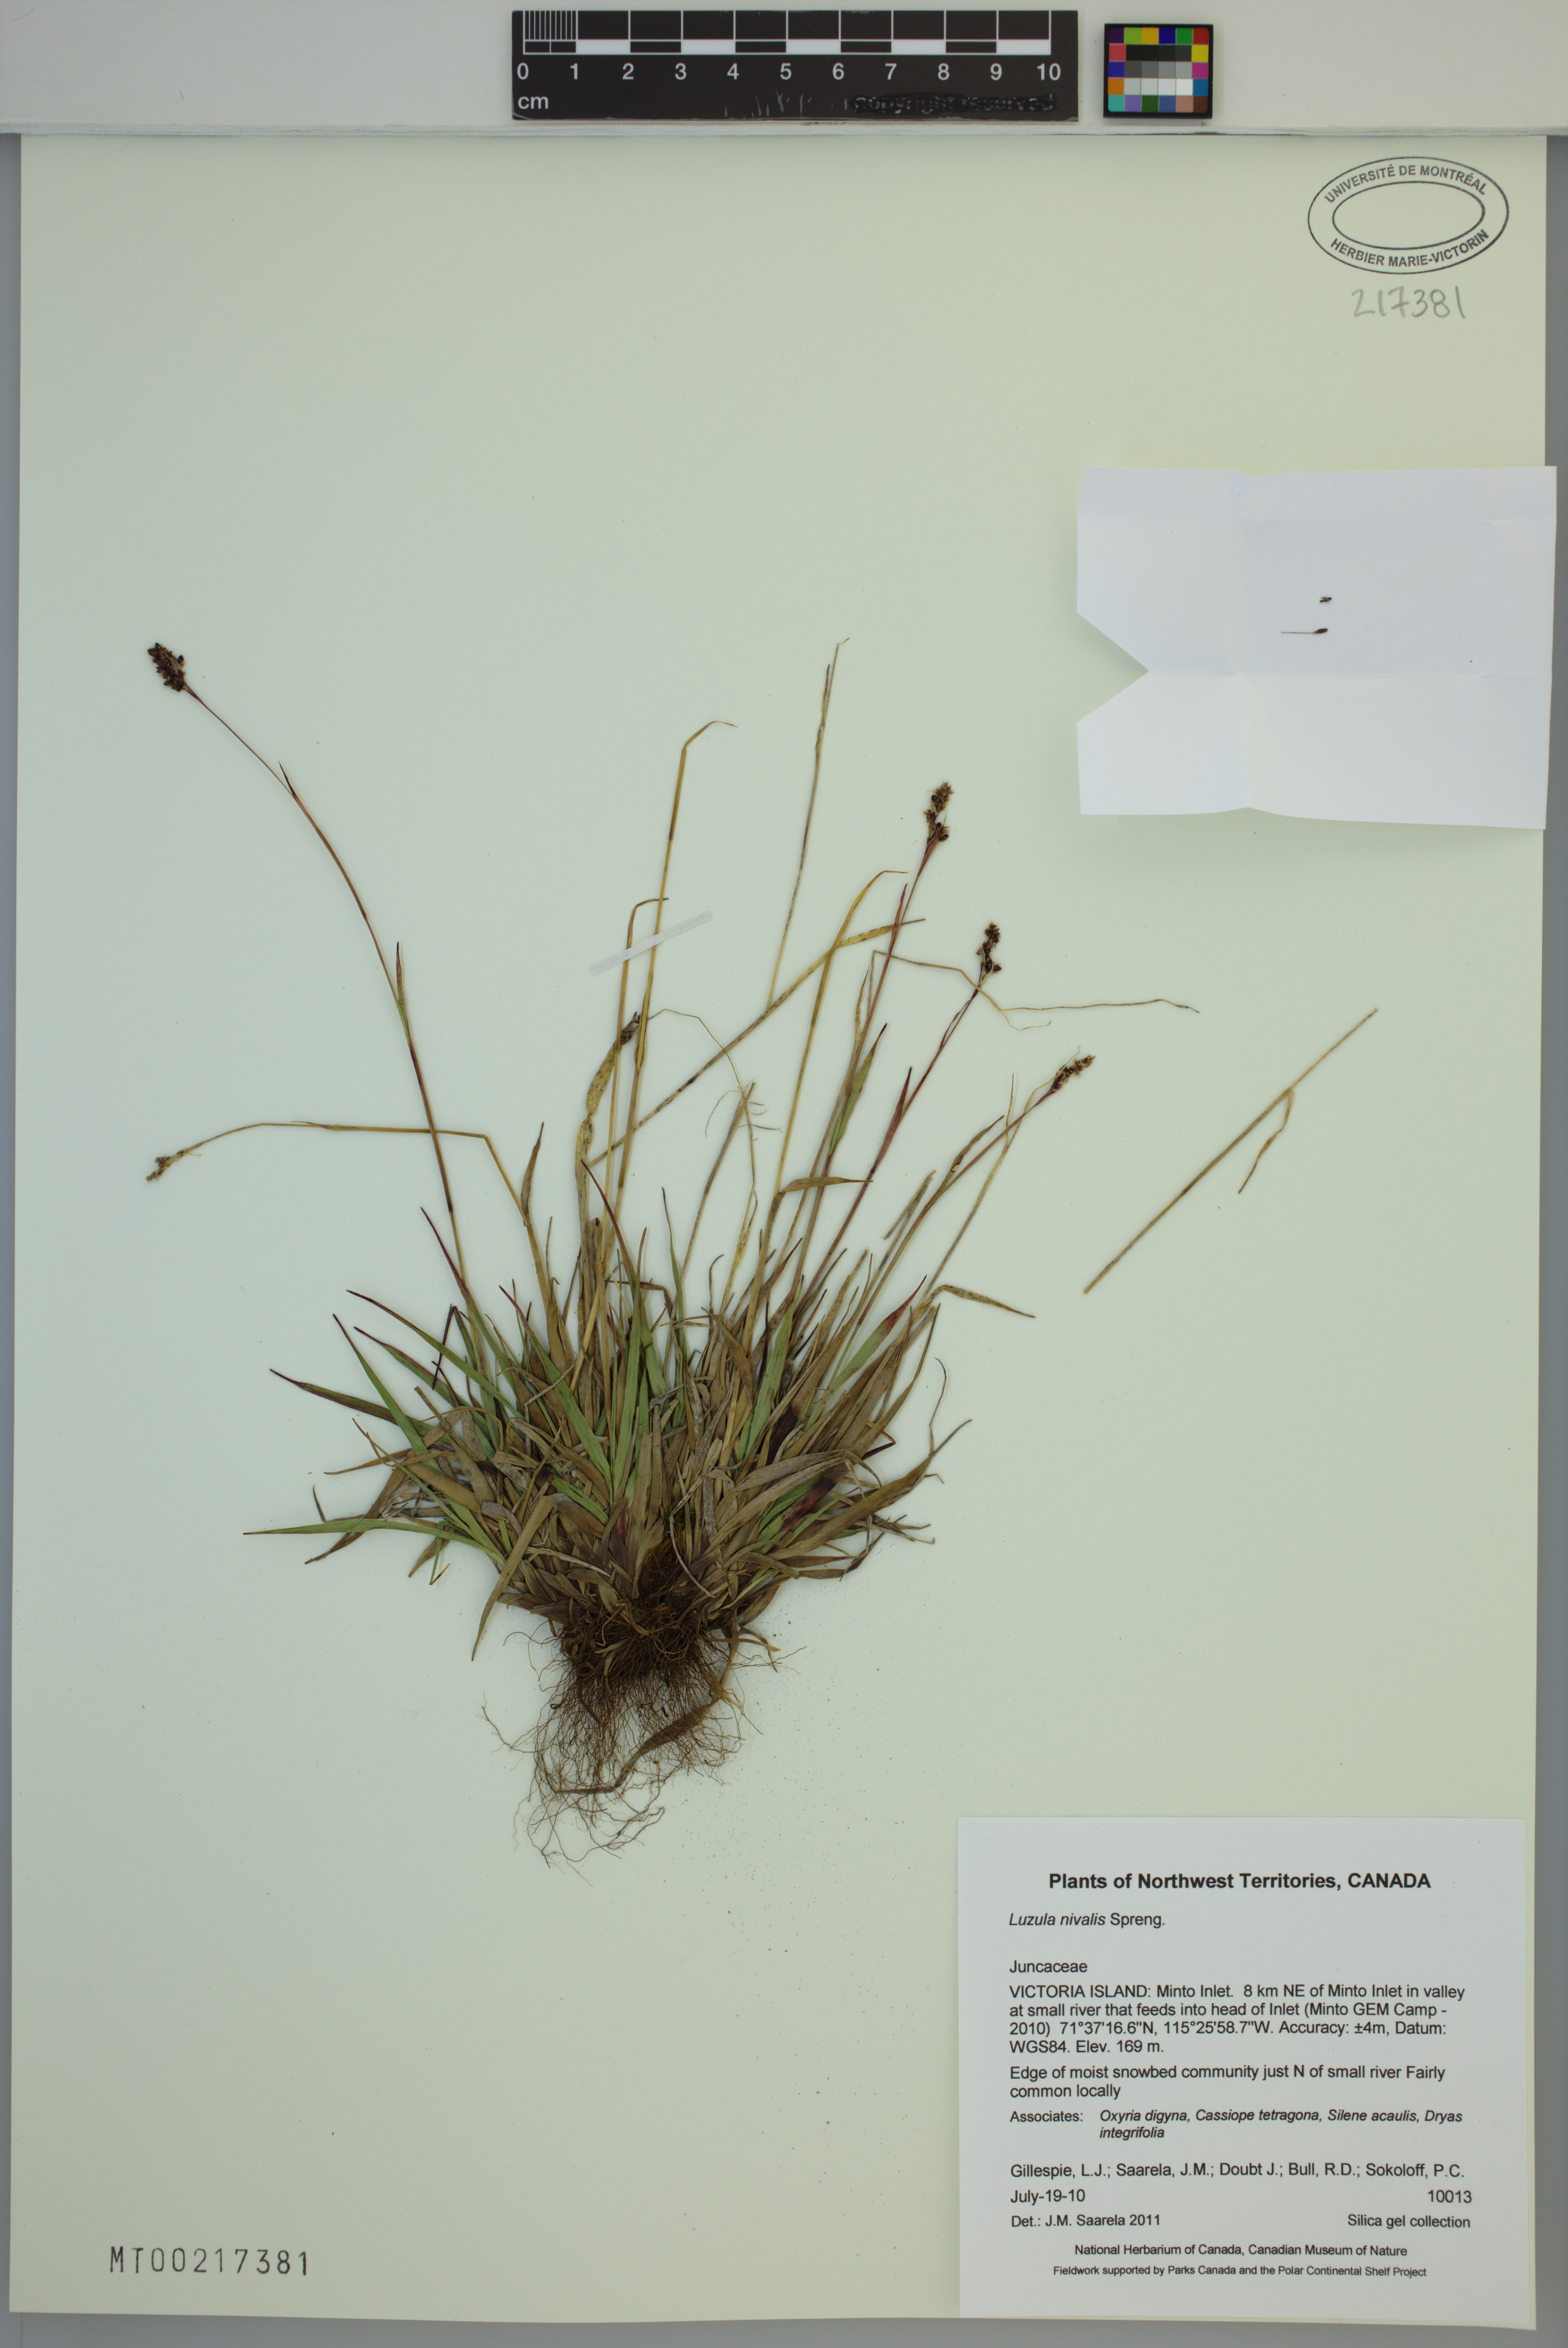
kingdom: Plantae
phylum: Tracheophyta
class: Liliopsida
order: Poales
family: Juncaceae
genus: Luzula
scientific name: Luzula nivalis
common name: Arctic woodrush
